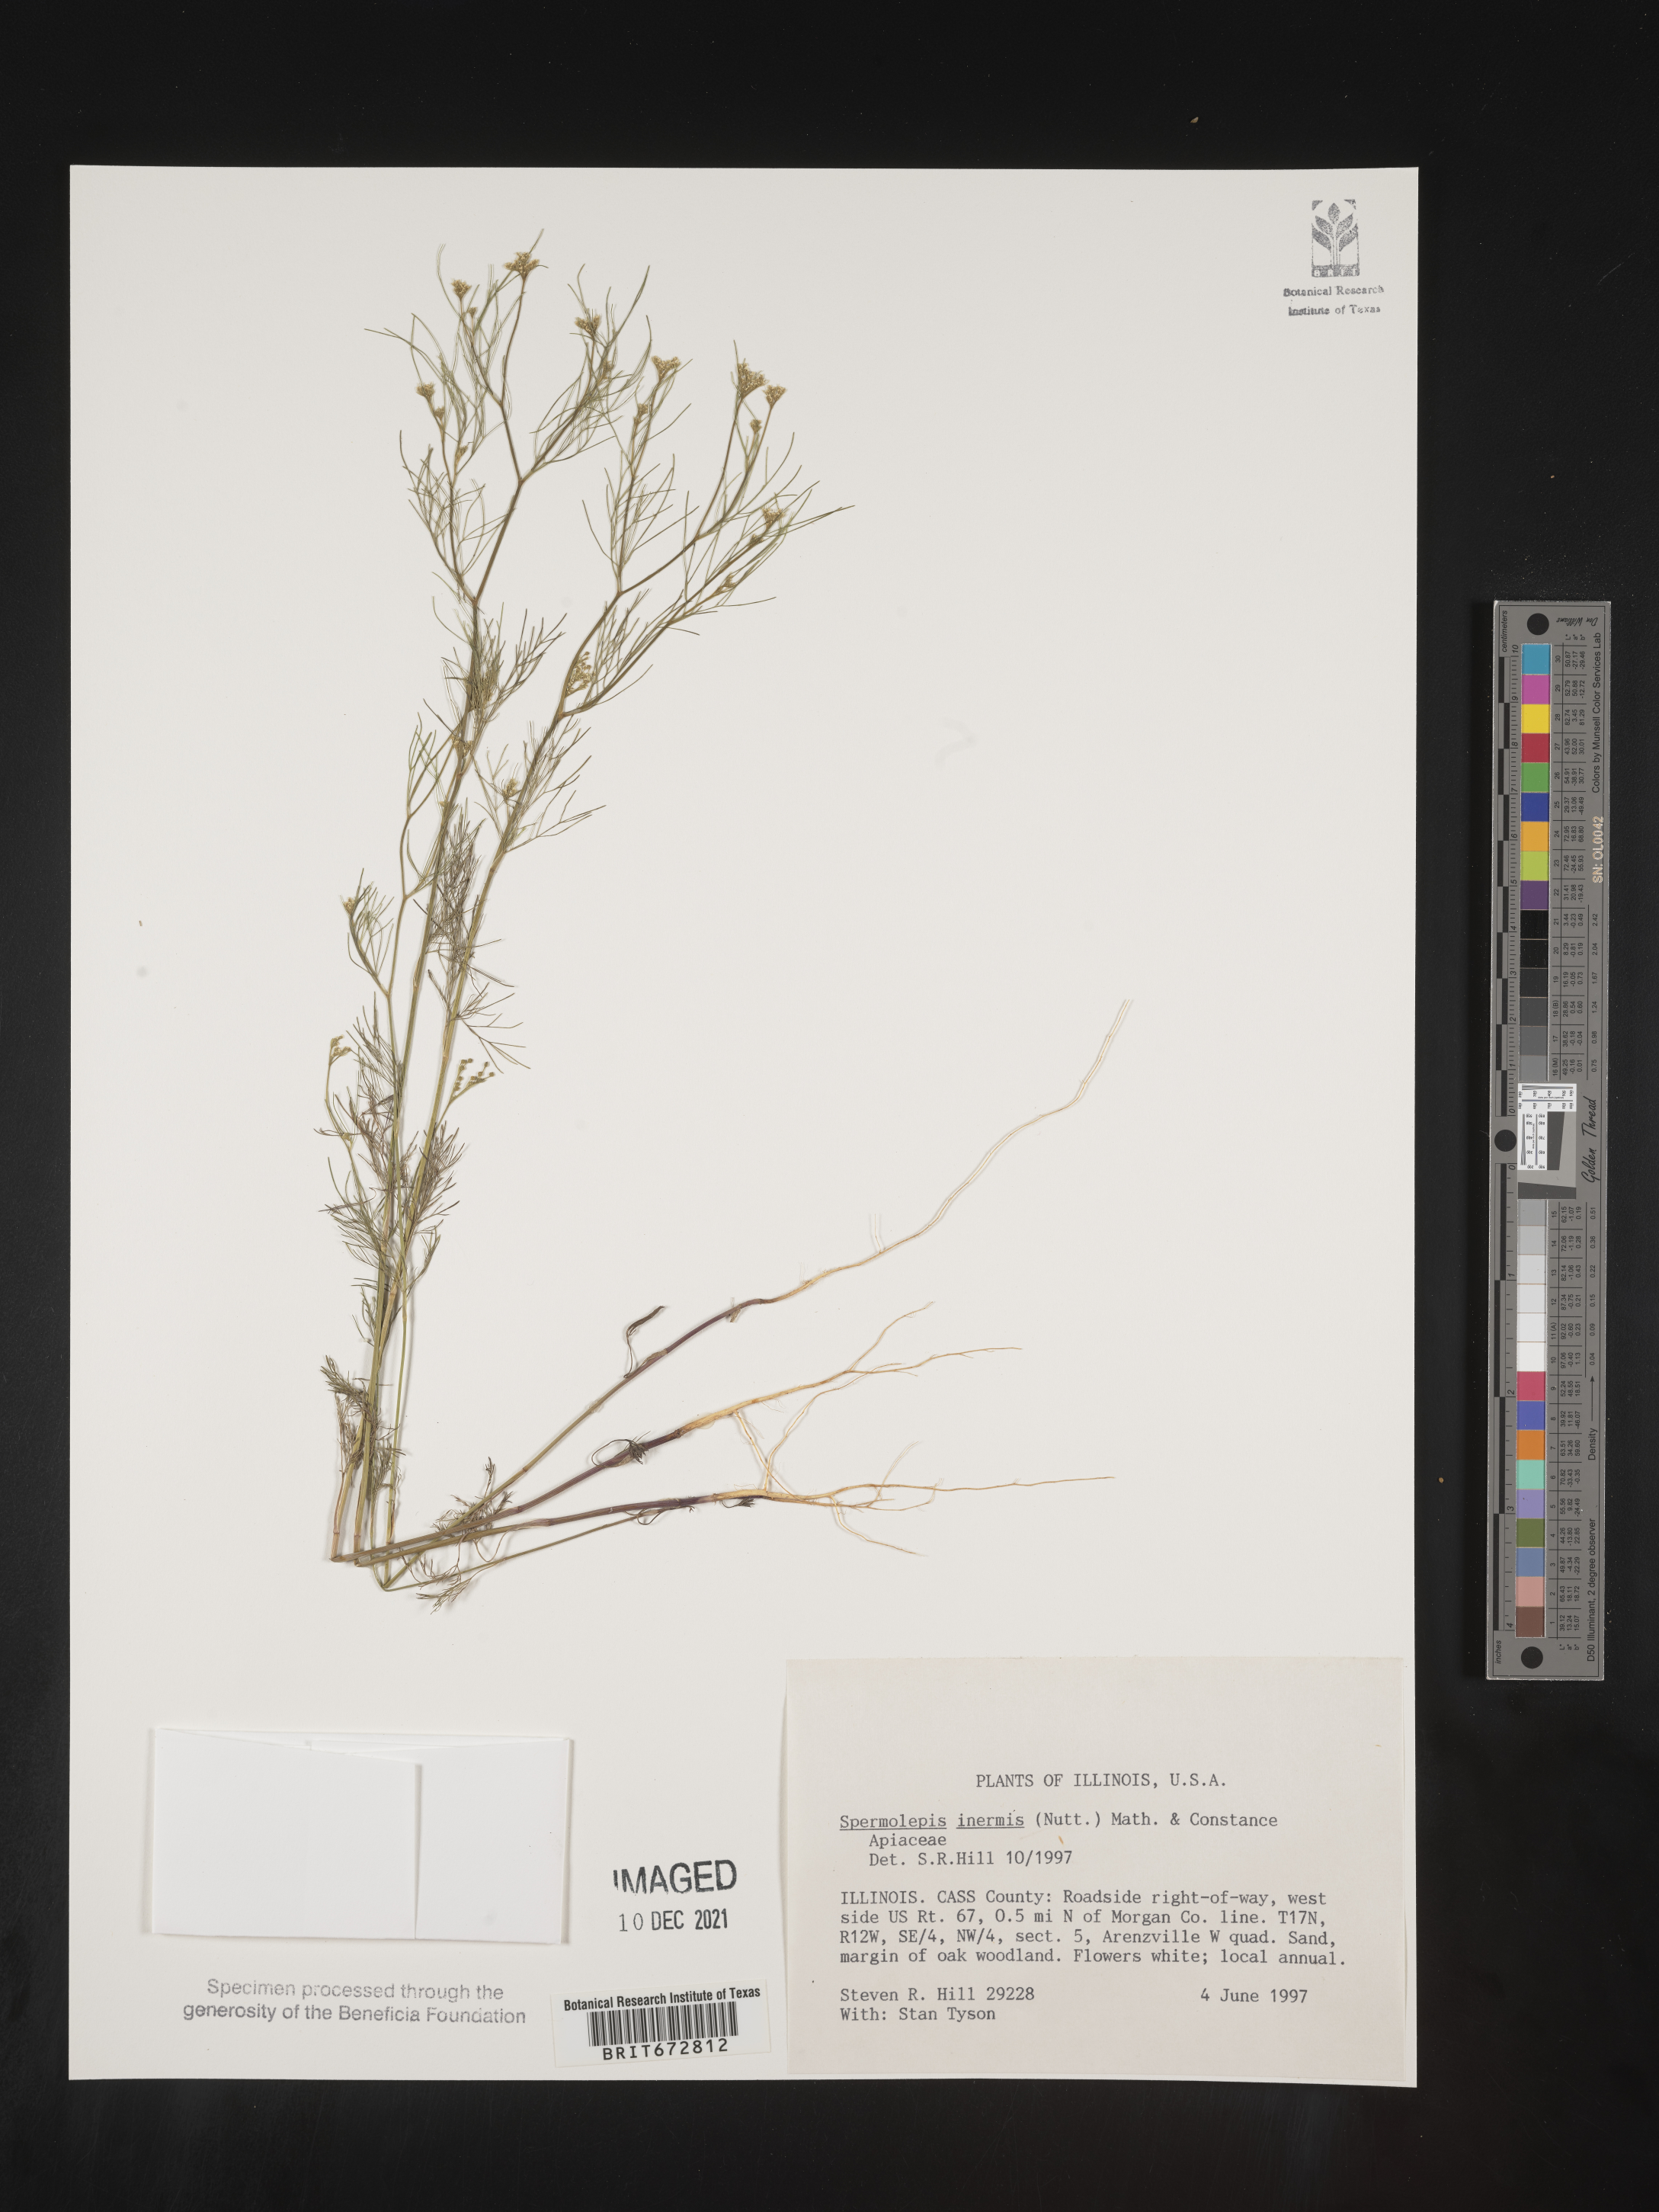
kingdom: Plantae
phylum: Tracheophyta
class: Magnoliopsida
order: Apiales
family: Apiaceae
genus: Spermolepis
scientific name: Spermolepis inermis
